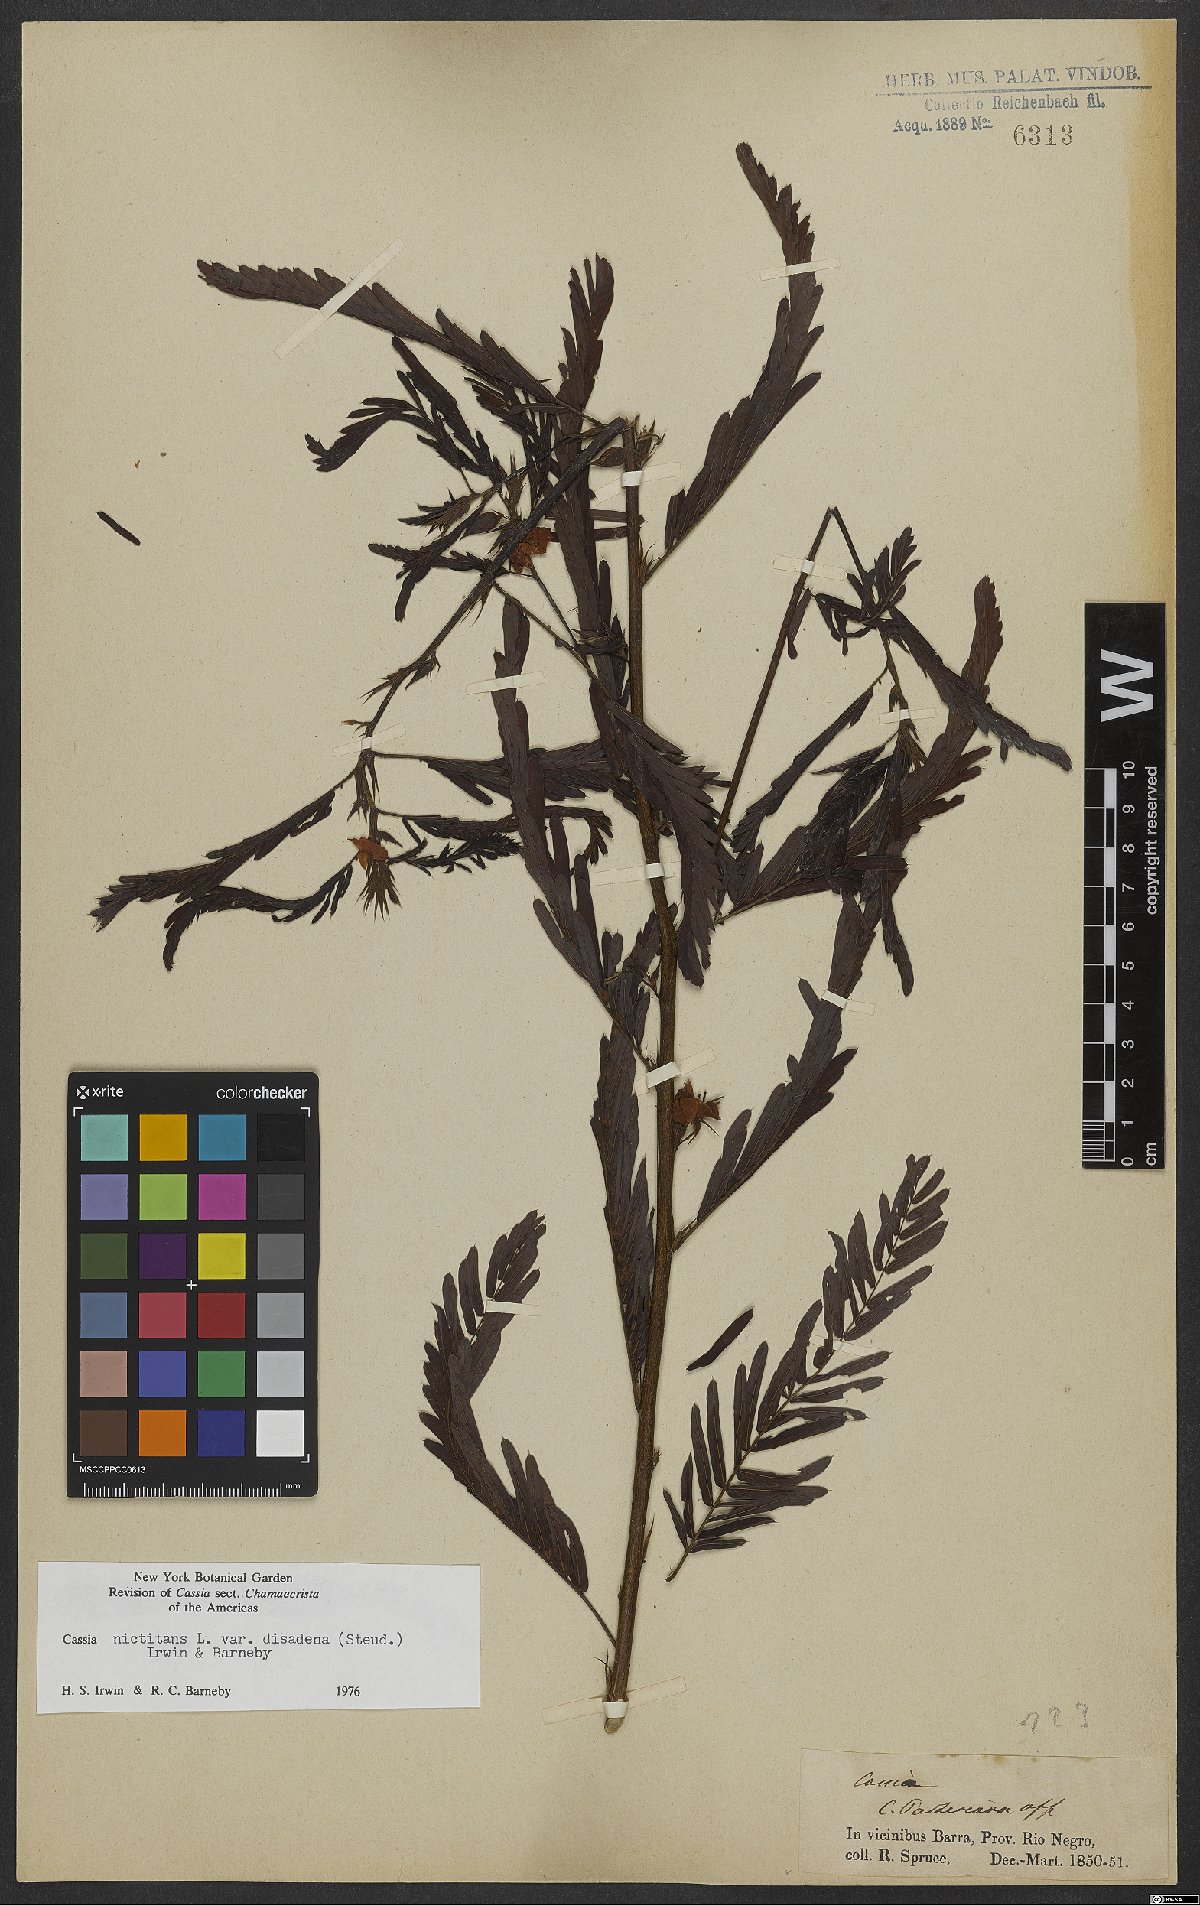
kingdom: Plantae
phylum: Tracheophyta
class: Magnoliopsida
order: Fabales
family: Fabaceae
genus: Chamaecrista
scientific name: Chamaecrista nictitans
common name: Sensitive cassia
